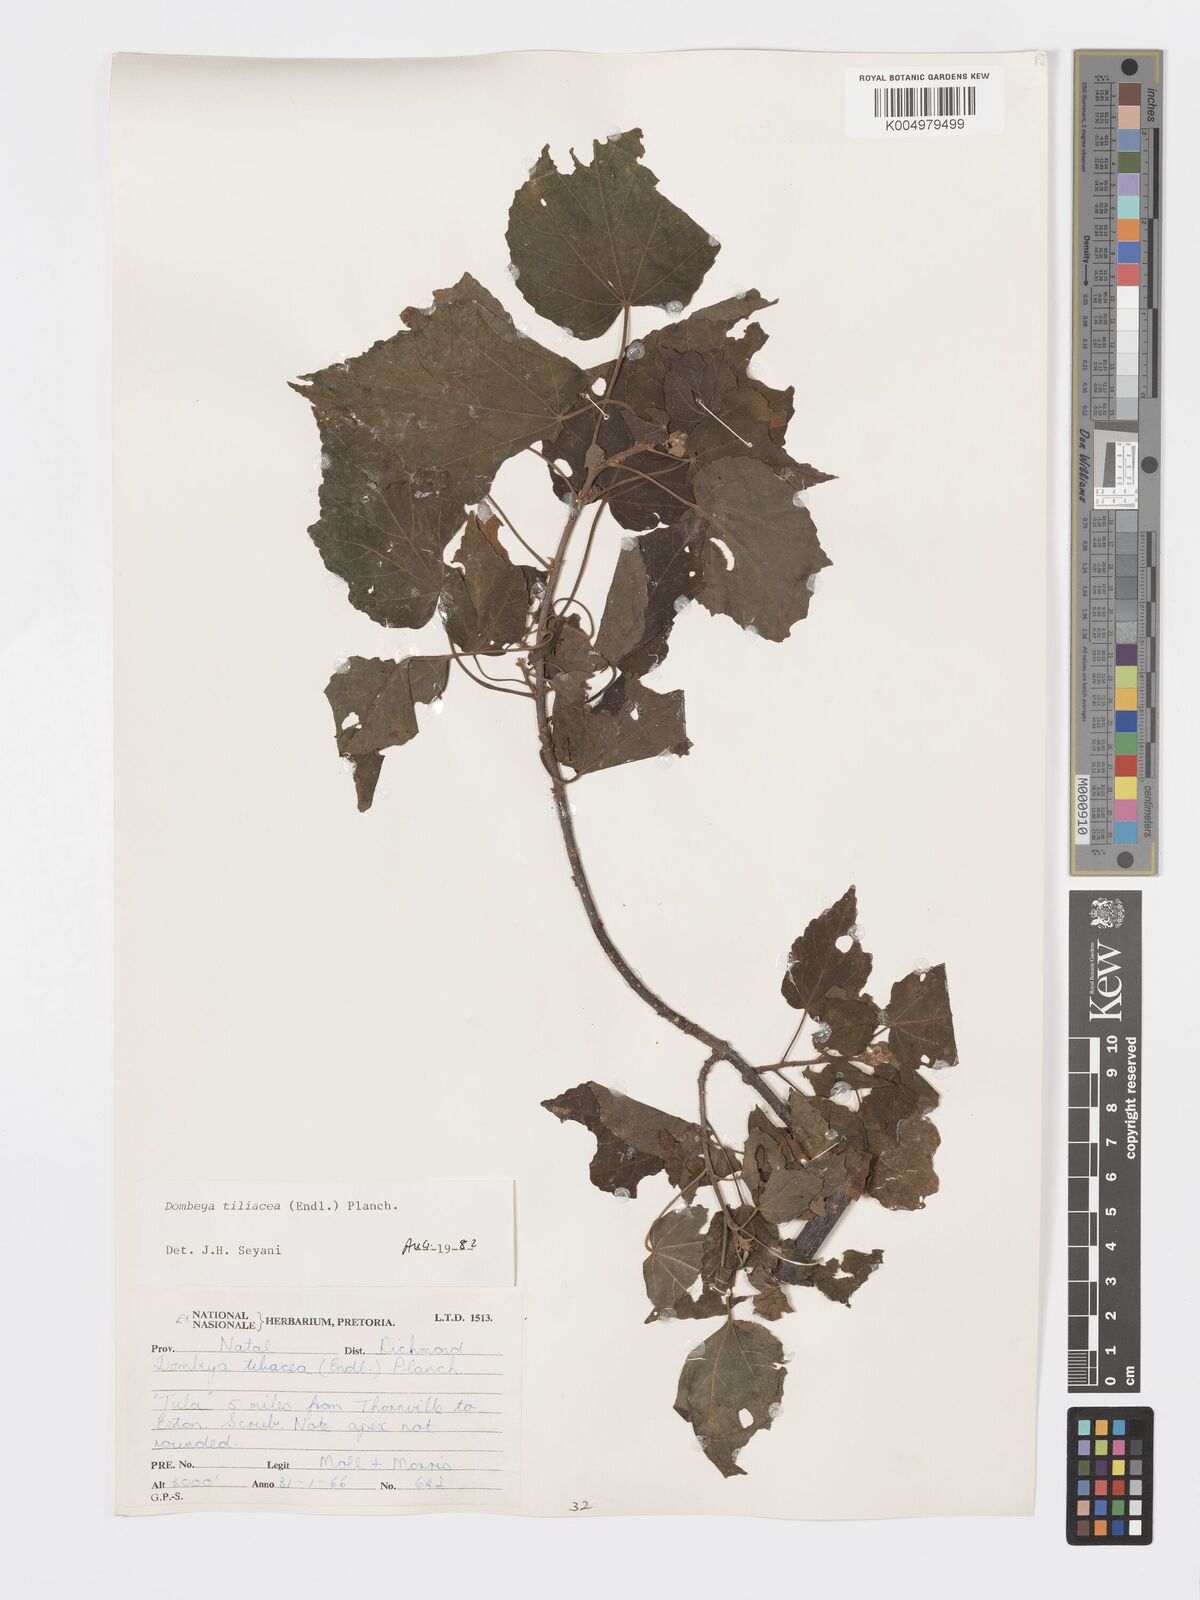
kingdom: Plantae
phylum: Tracheophyta
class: Magnoliopsida
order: Malvales
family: Malvaceae
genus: Dombeya
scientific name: Dombeya tiliacea
